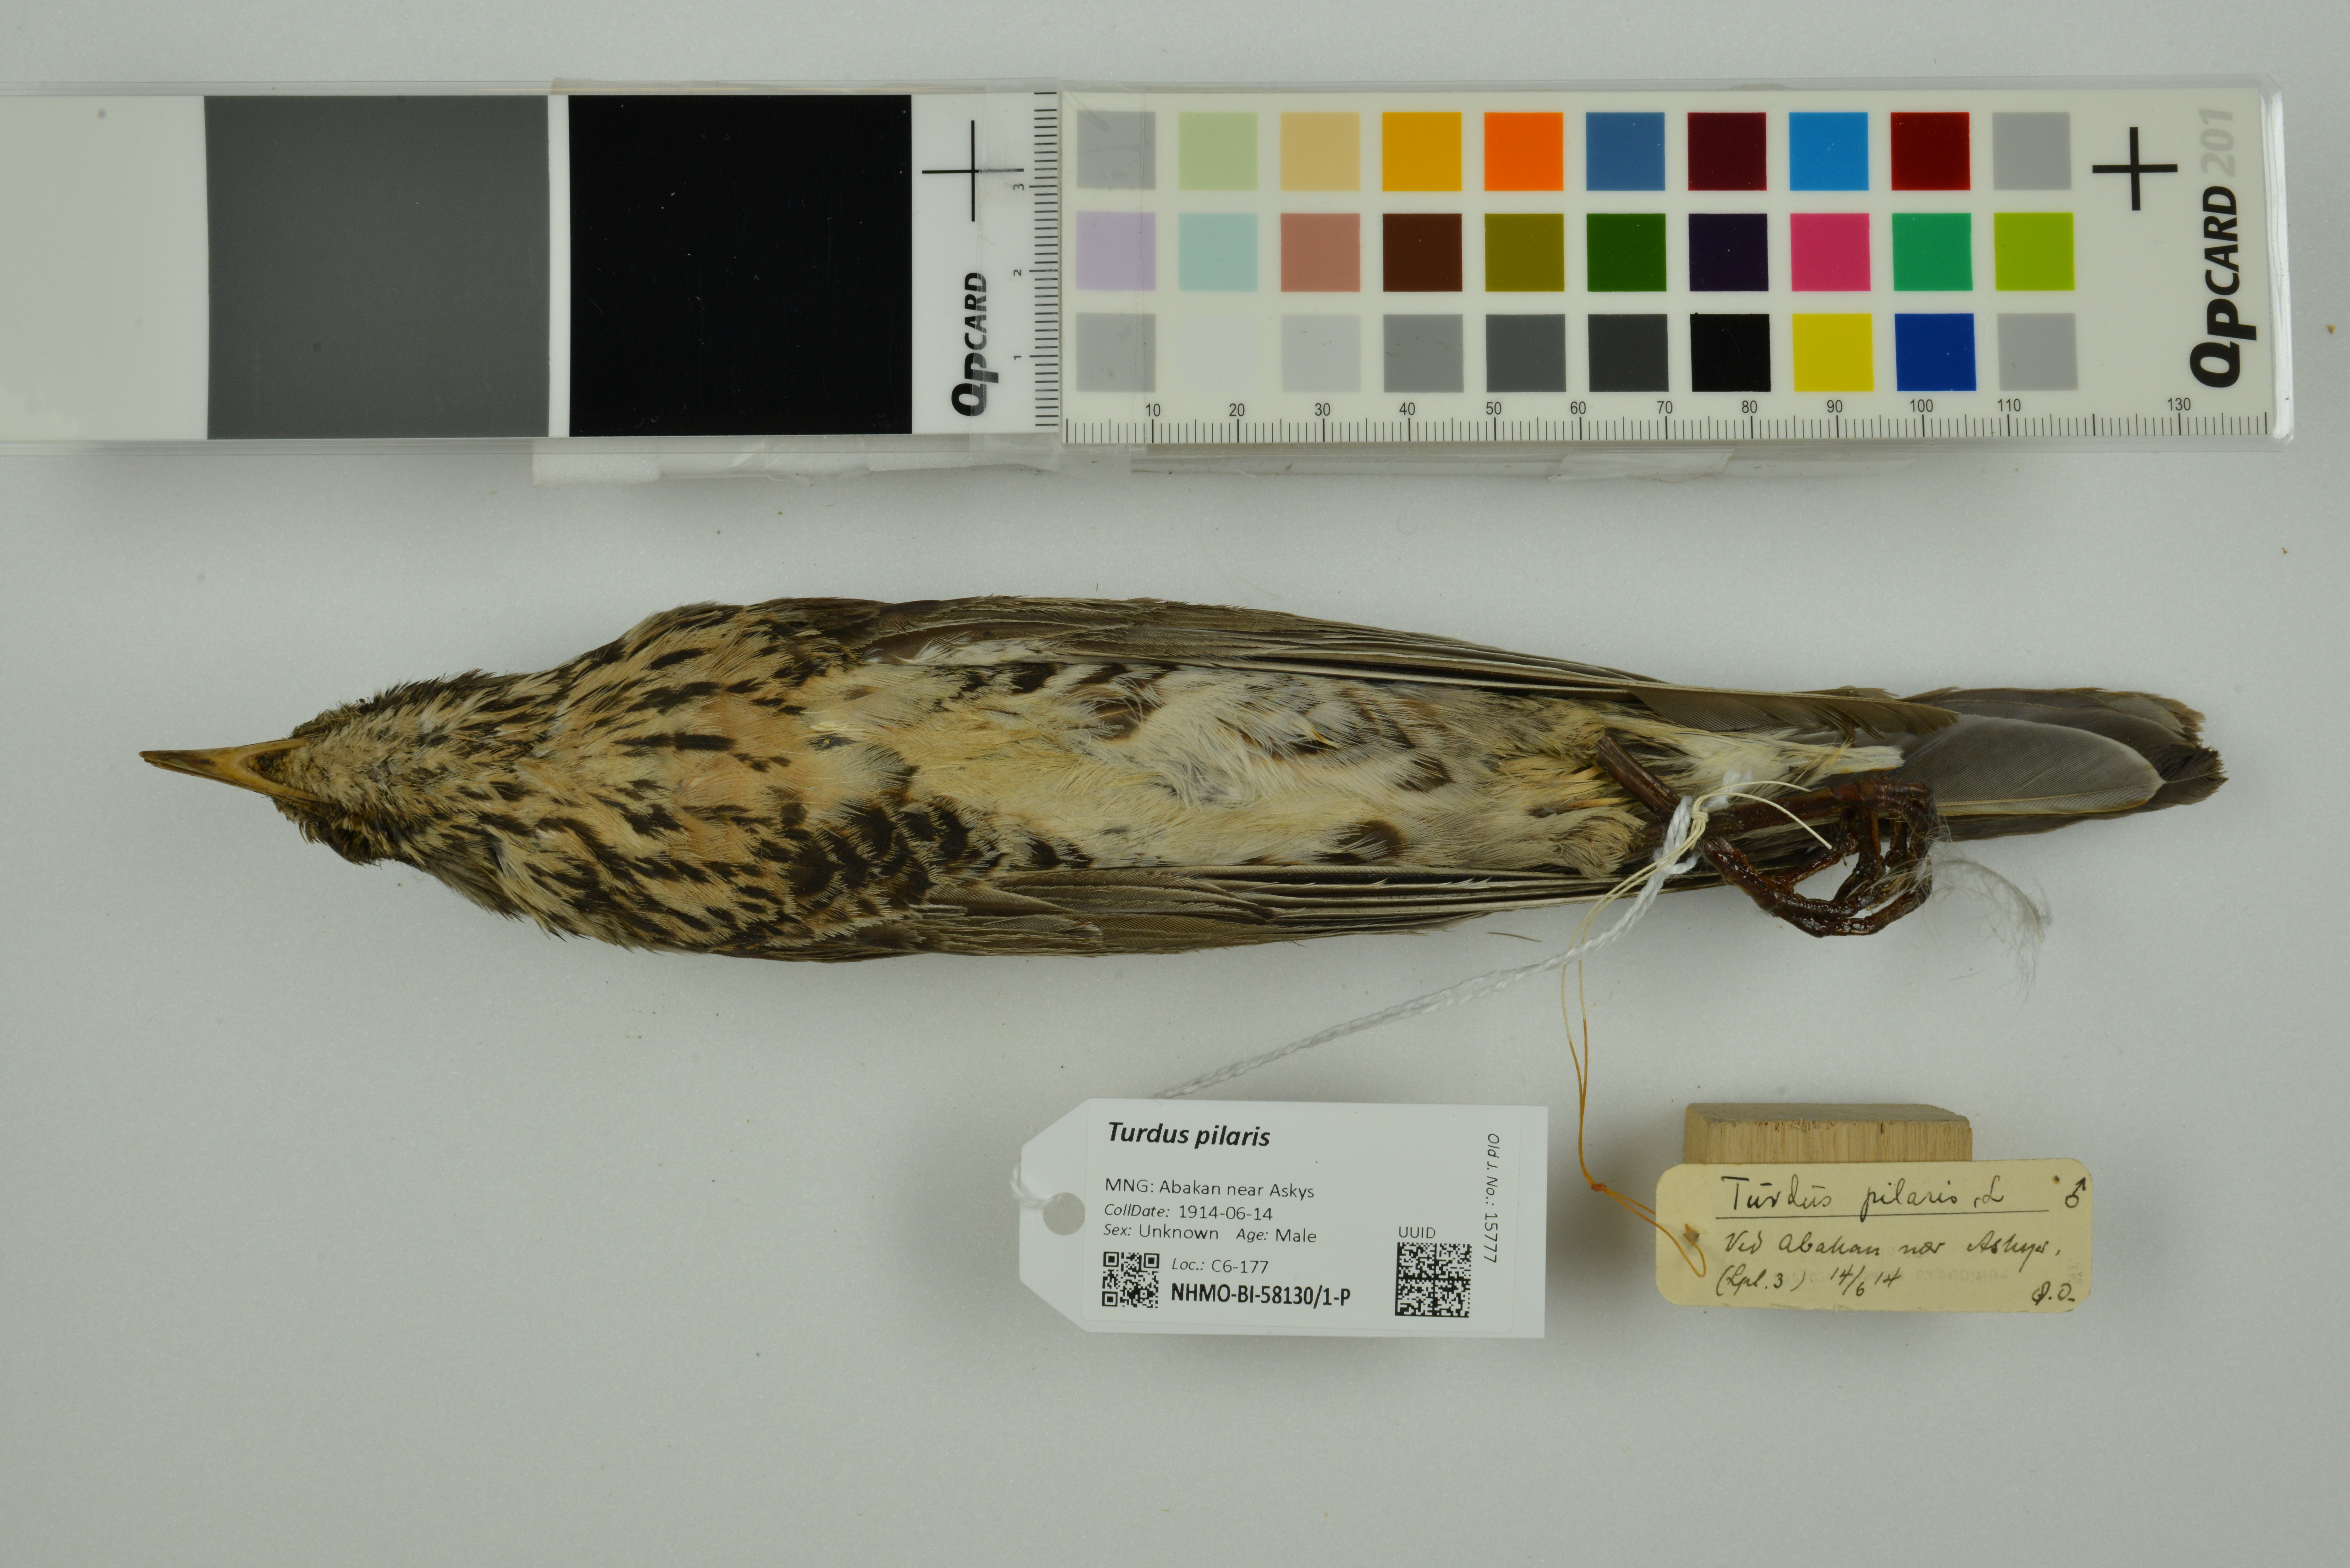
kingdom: Animalia
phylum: Chordata
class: Aves
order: Passeriformes
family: Turdidae
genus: Turdus
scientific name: Turdus pilaris
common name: Fieldfare
